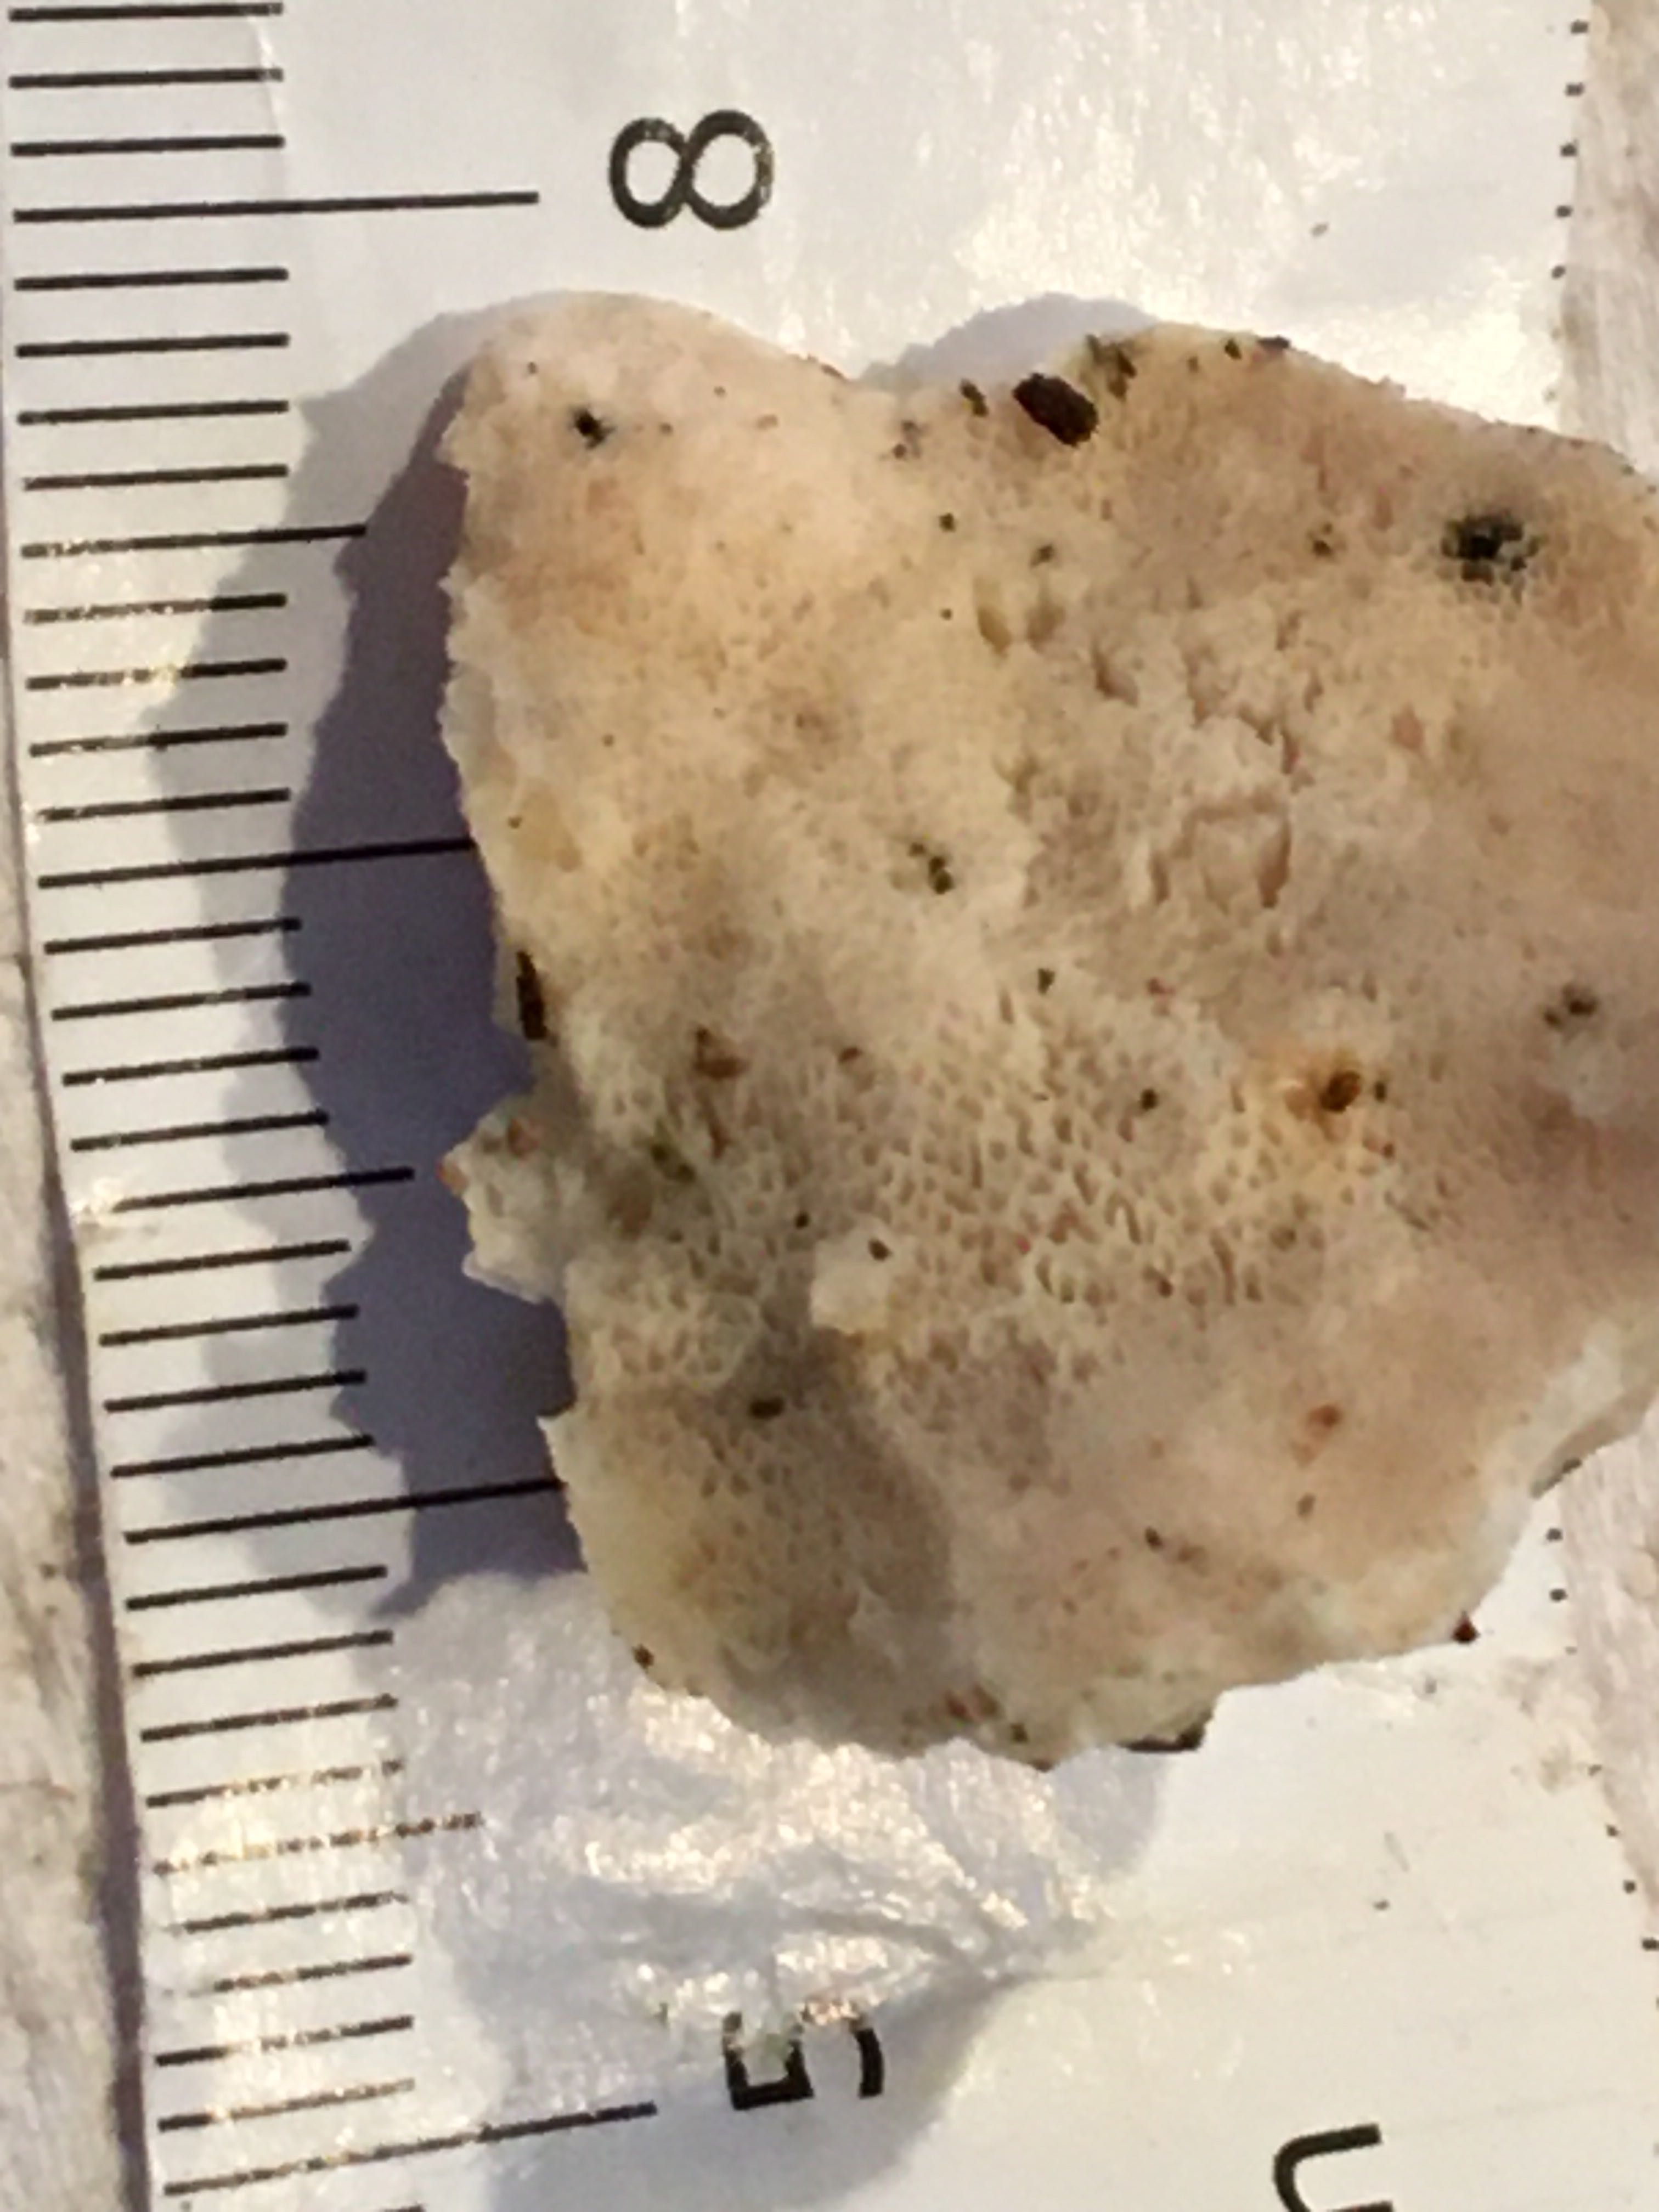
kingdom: Fungi
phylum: Basidiomycota
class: Agaricomycetes
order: Polyporales
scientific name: Polyporales
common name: poresvampordenen
